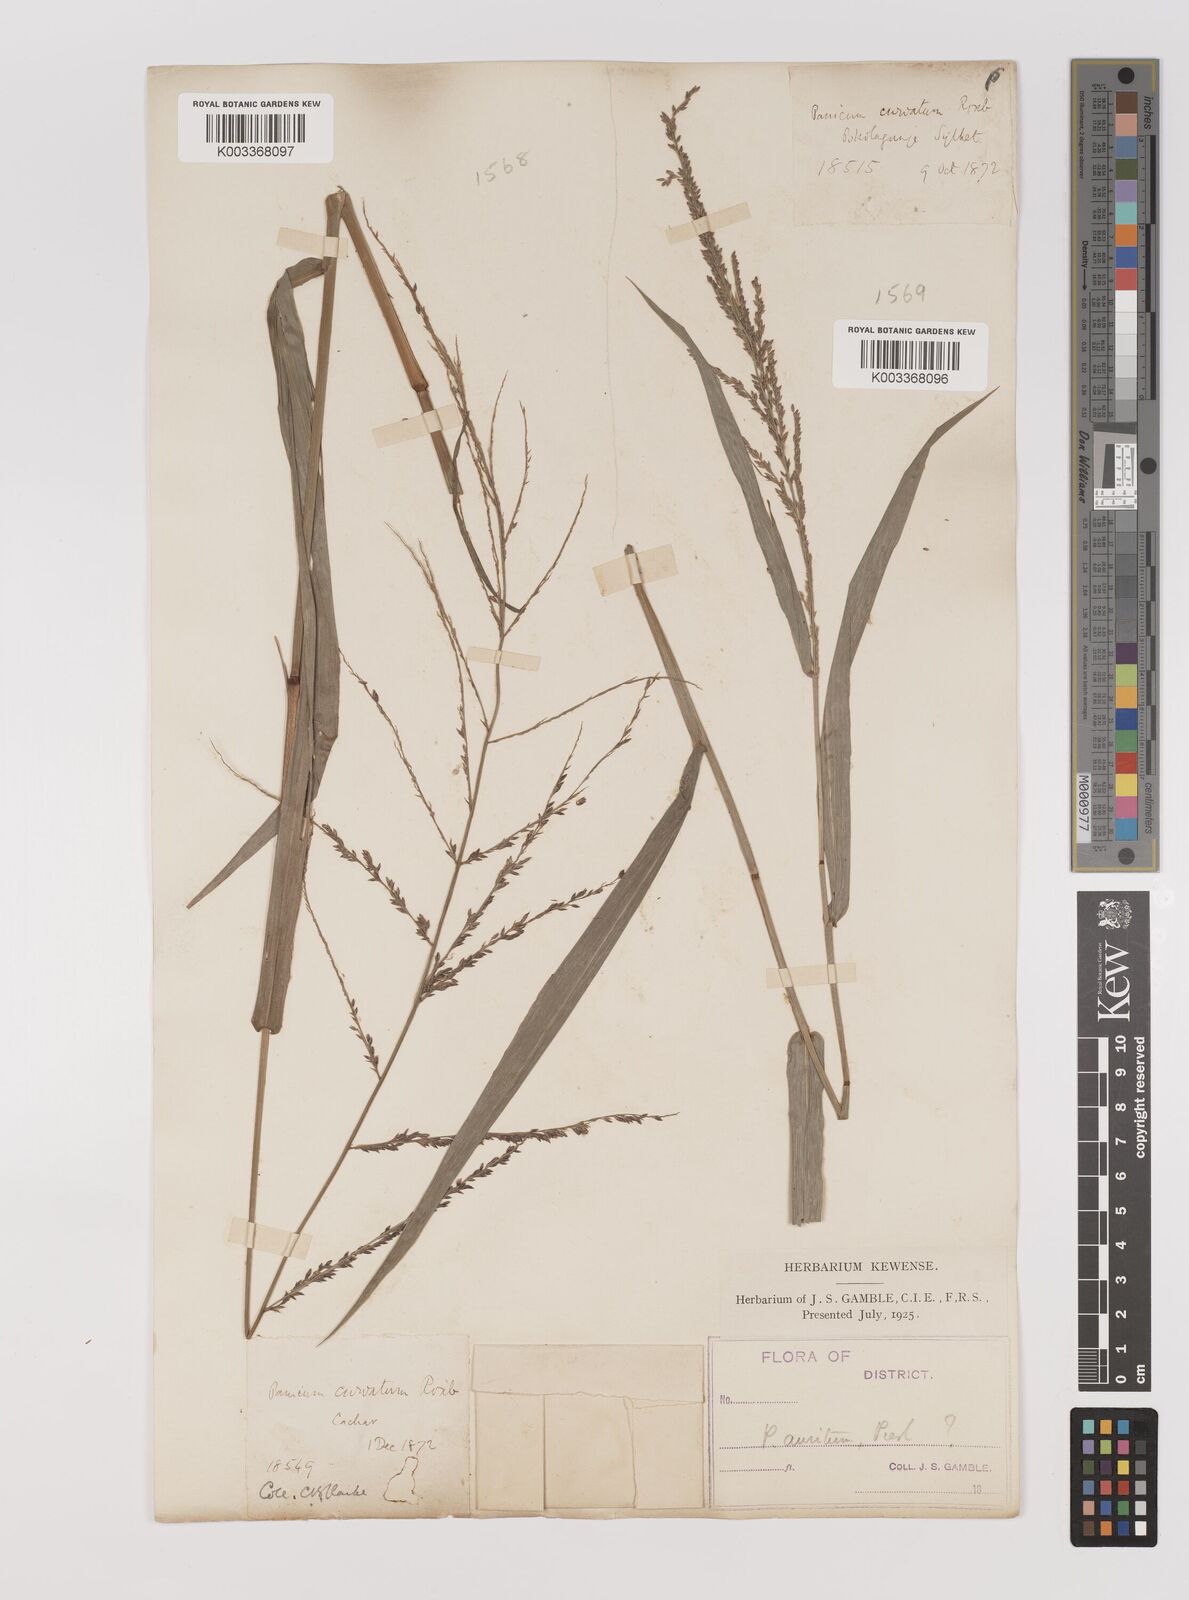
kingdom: Plantae
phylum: Tracheophyta
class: Liliopsida
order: Poales
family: Poaceae
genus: Hymenachne
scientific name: Hymenachne aurita
